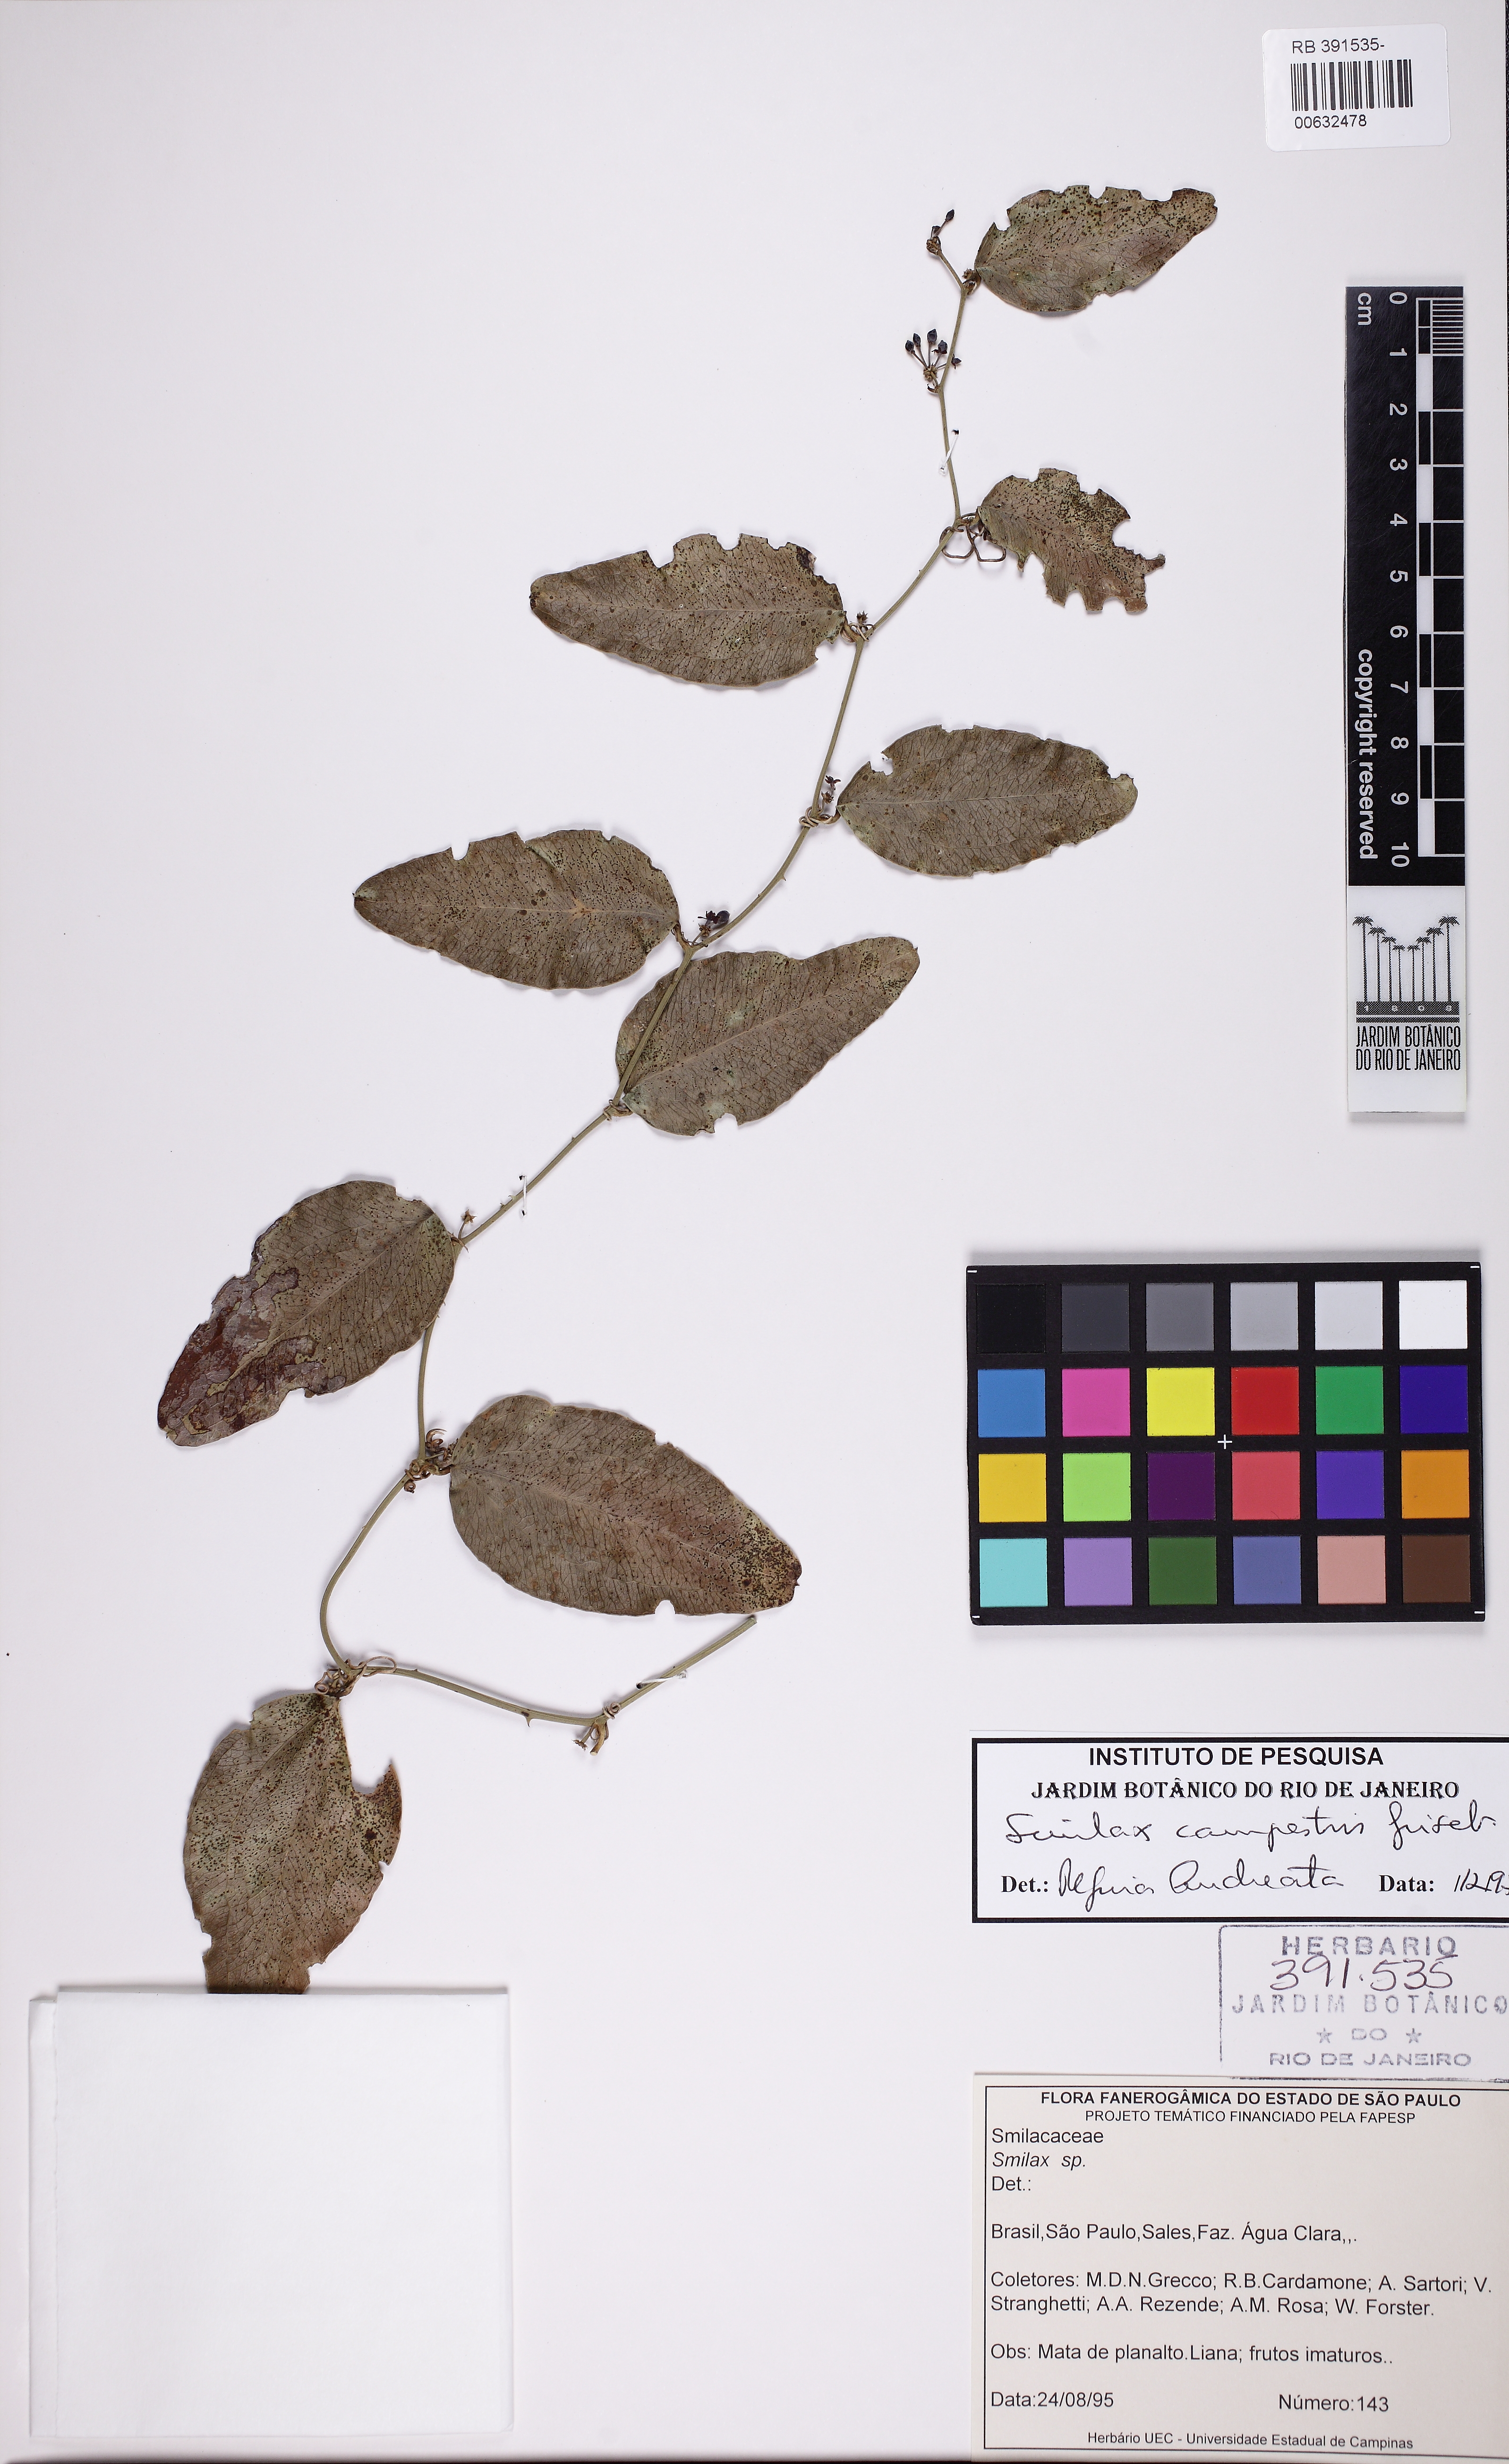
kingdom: Plantae
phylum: Tracheophyta
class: Liliopsida
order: Liliales
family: Smilacaceae
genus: Smilax
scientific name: Smilax campestris
